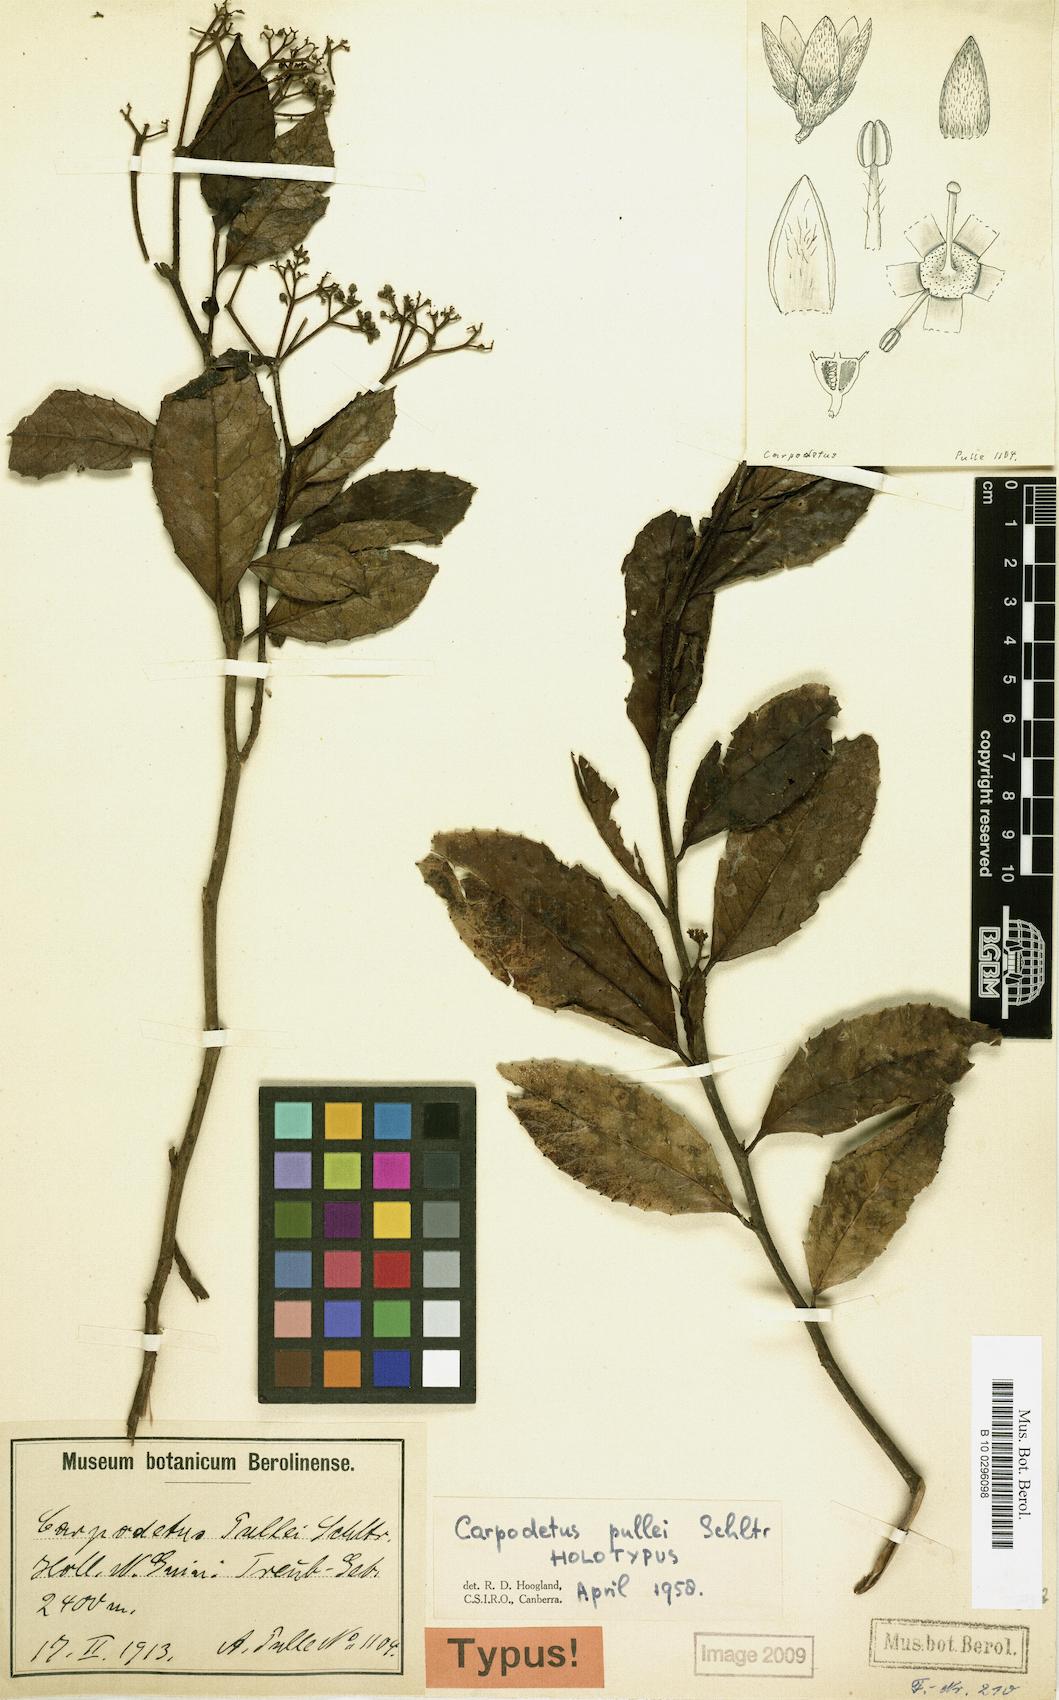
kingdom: Plantae
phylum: Tracheophyta
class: Magnoliopsida
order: Asterales
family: Rousseaceae
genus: Carpodetus
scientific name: Carpodetus arboreus
